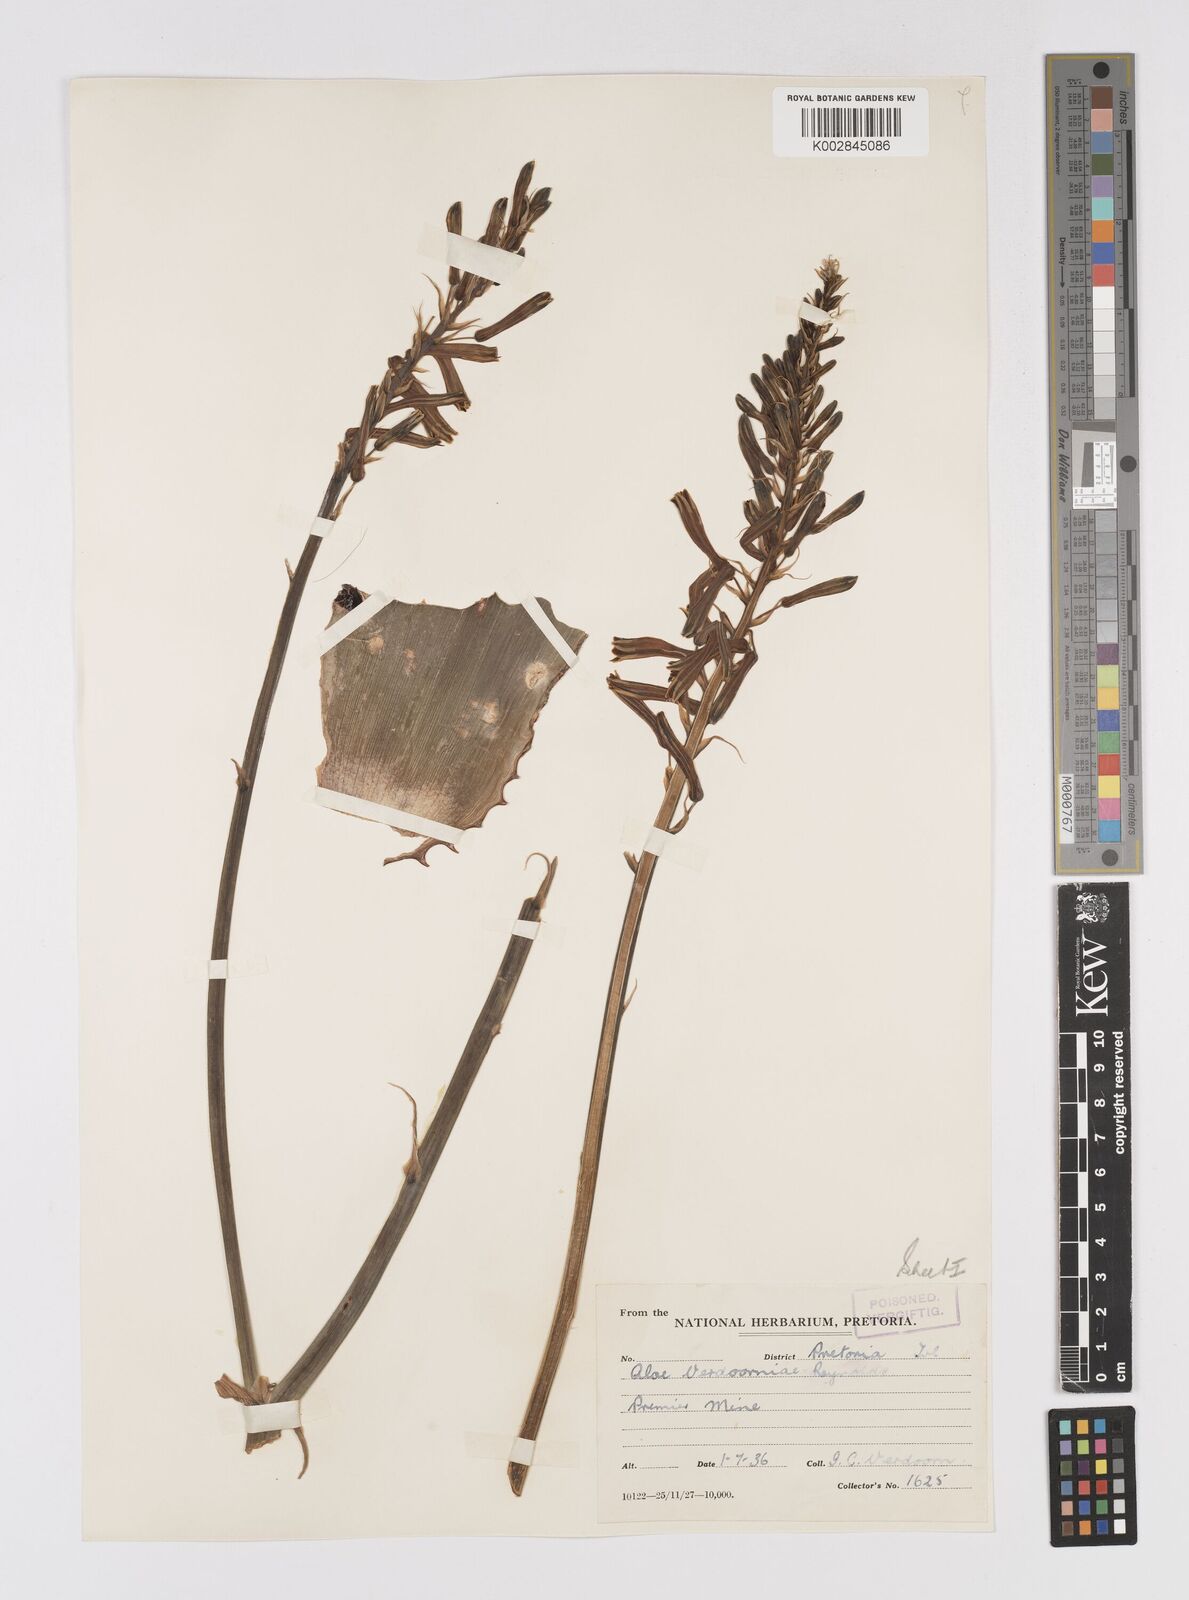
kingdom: Plantae
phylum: Tracheophyta
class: Liliopsida
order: Asparagales
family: Asphodelaceae
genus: Aloe
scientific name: Aloe davyana
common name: Spotted aloe
